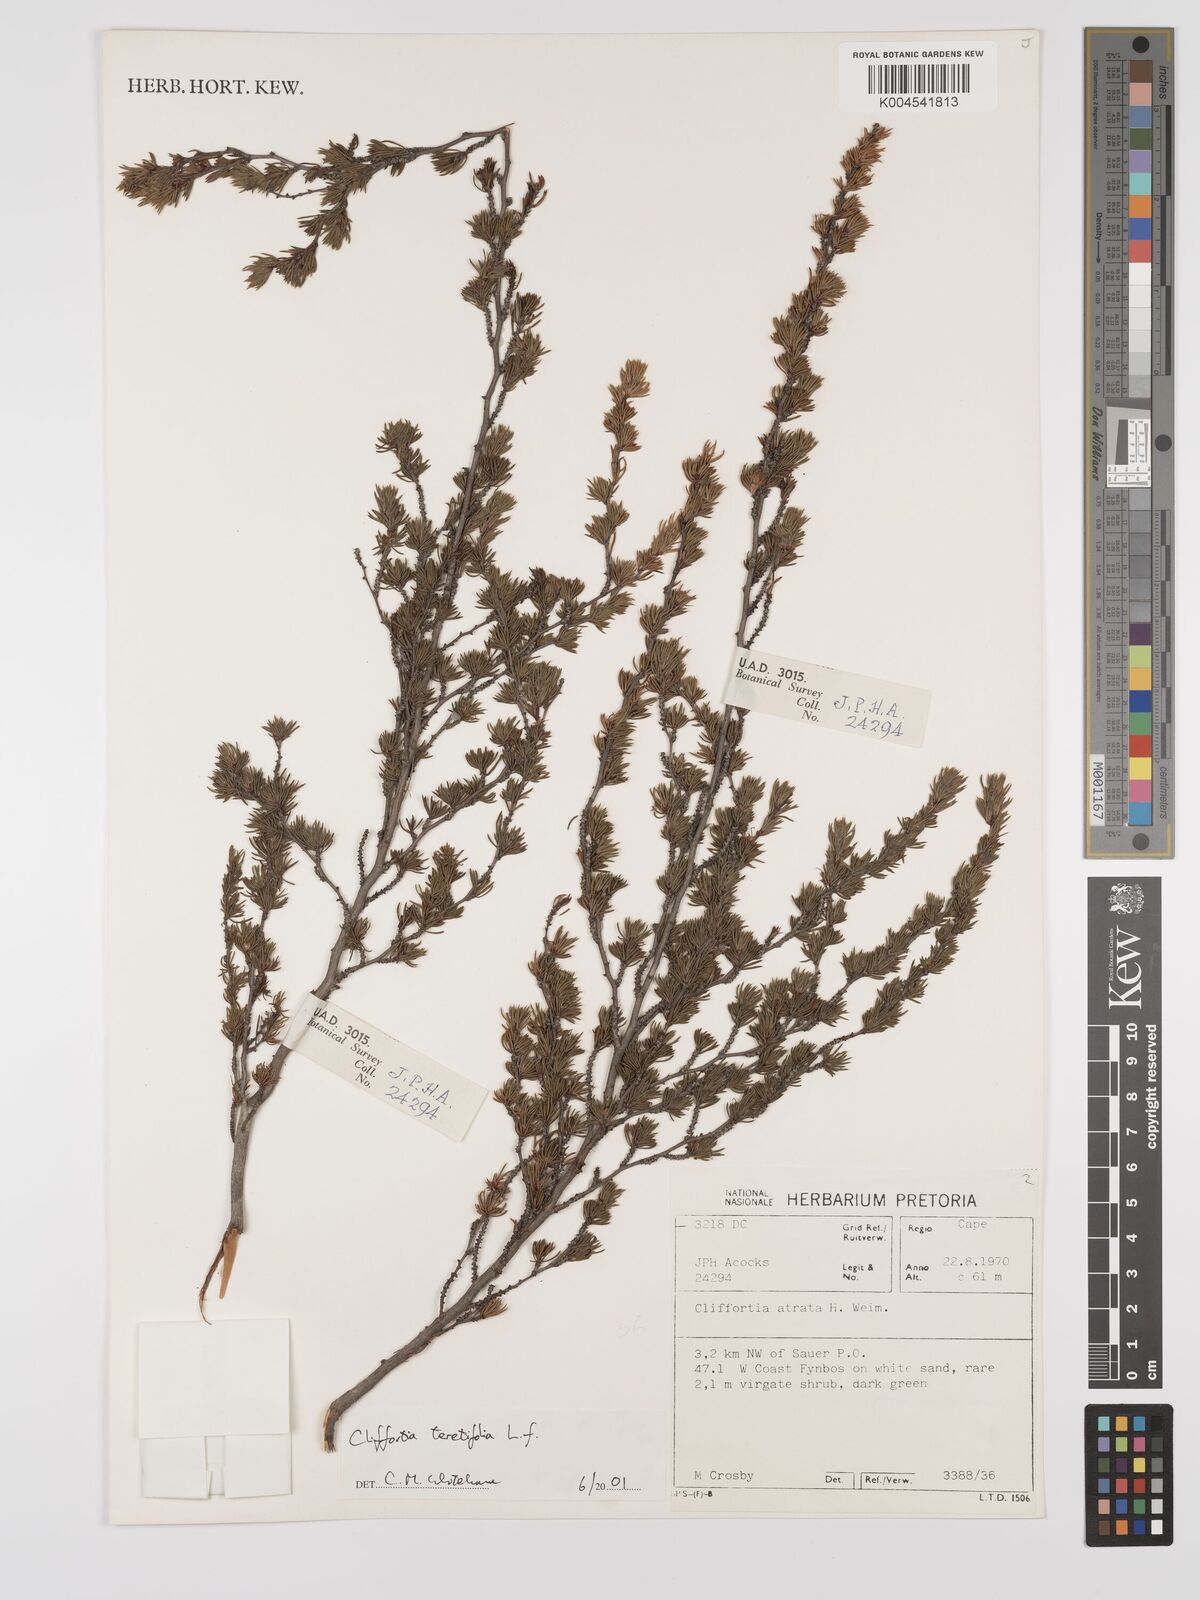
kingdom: Plantae
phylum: Tracheophyta
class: Magnoliopsida
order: Rosales
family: Rosaceae
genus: Cliffortia
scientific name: Cliffortia teretifolia
